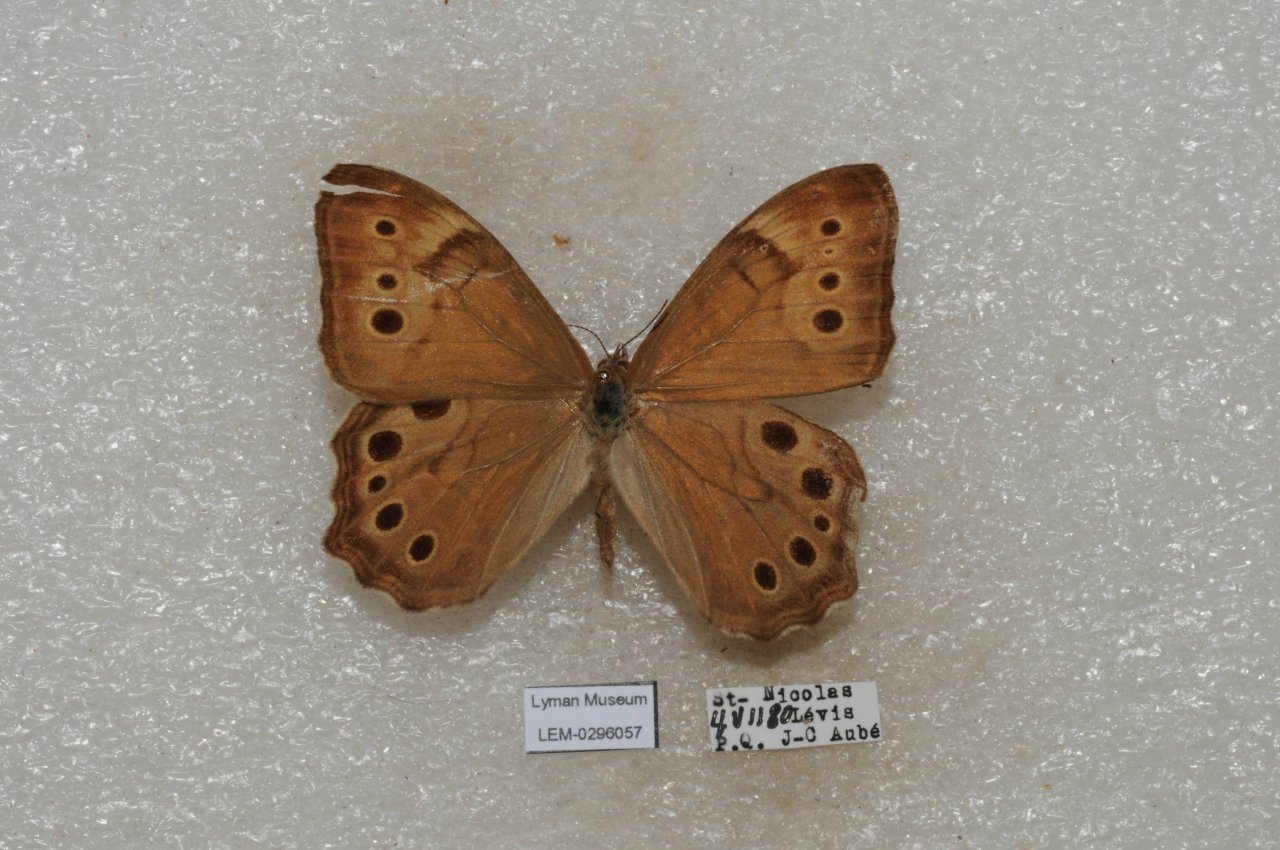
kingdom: Animalia
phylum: Arthropoda
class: Insecta
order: Lepidoptera
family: Nymphalidae
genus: Lethe
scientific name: Lethe anthedon
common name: Northern Pearly-Eye
